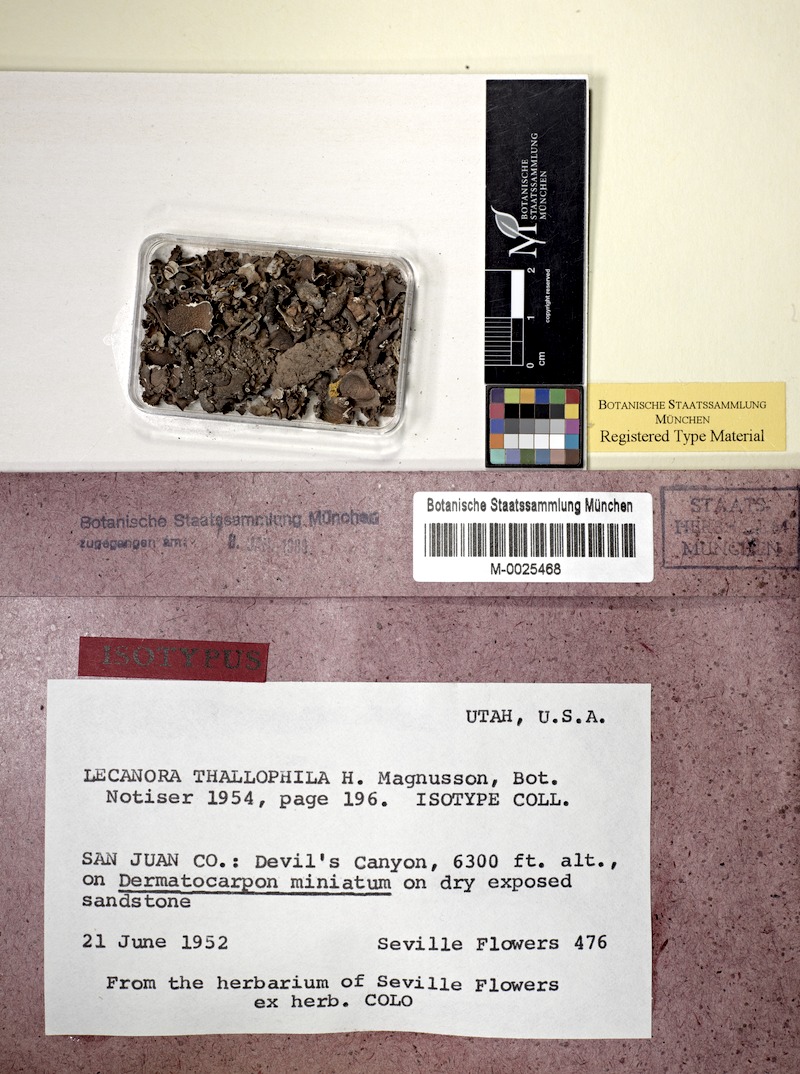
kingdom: Fungi
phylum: Ascomycota
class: Lecanoromycetes
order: Lecanorales
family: Lecanoraceae
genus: Lecanora
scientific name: Lecanora thallophila
